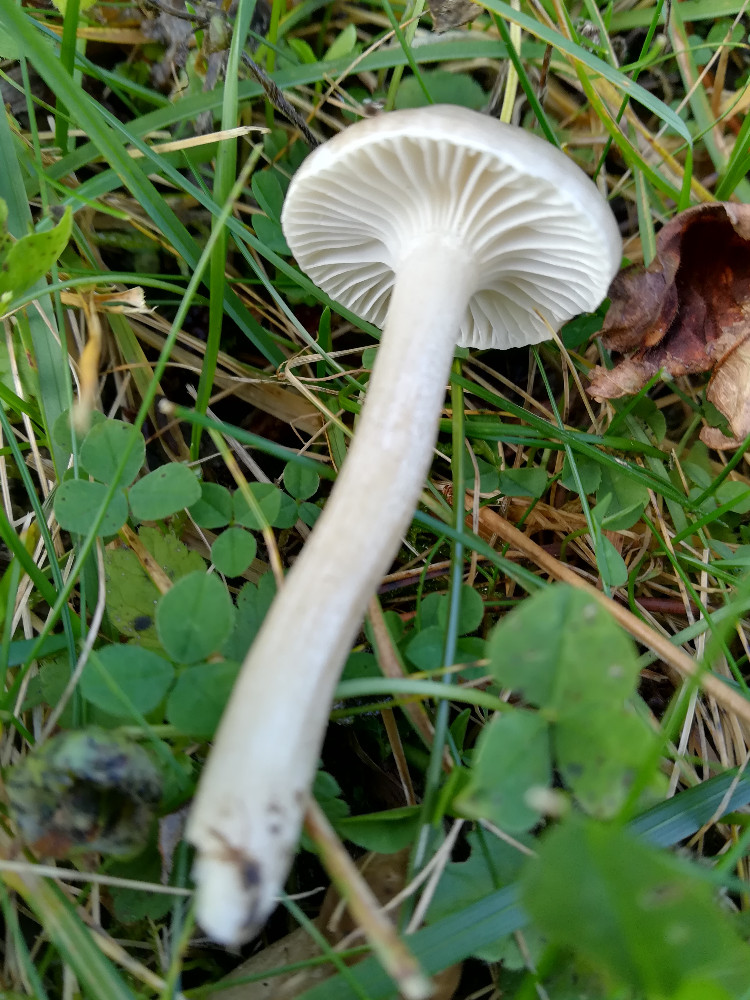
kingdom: Fungi
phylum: Basidiomycota
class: Agaricomycetes
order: Agaricales
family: Hygrophoraceae
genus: Hygrophorus
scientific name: Hygrophorus suaveolens
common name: parfumeret sneglehat
